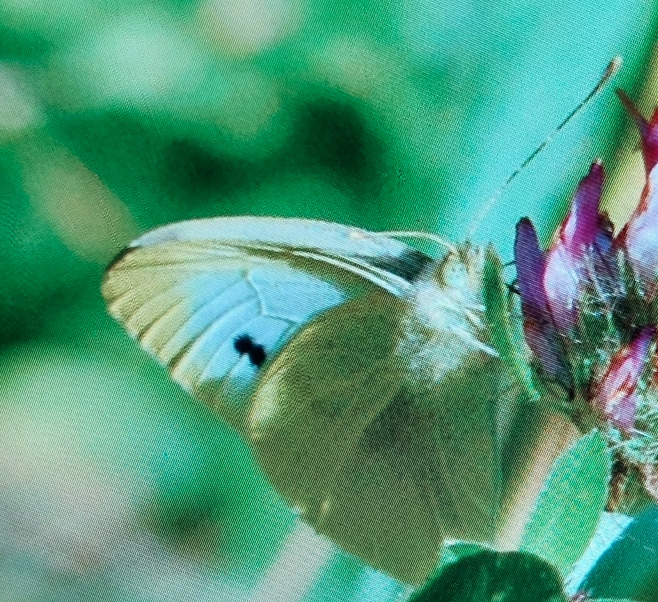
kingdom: Animalia
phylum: Arthropoda
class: Insecta
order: Lepidoptera
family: Pieridae
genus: Pieris
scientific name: Pieris brassicae
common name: Stor kålsommerfugl
